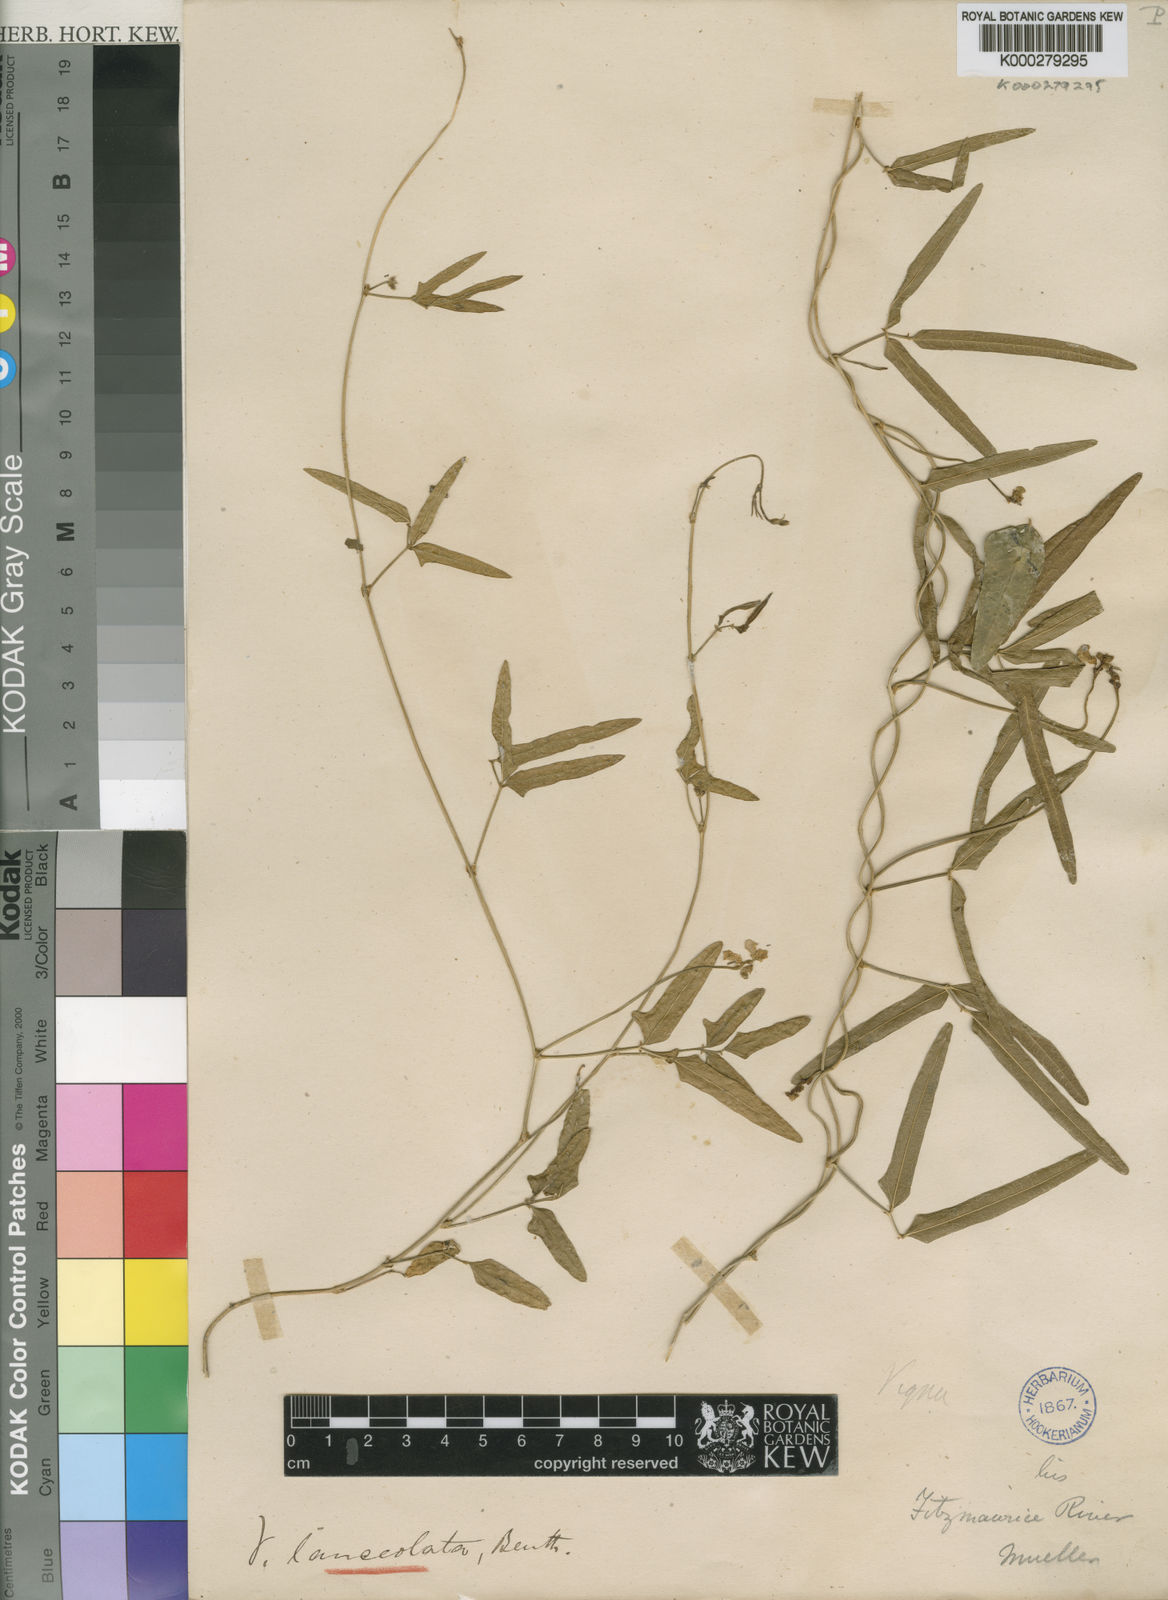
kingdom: Plantae
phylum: Tracheophyta
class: Magnoliopsida
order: Fabales
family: Fabaceae
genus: Vigna
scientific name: Vigna lanceolata
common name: Maloga-bean
